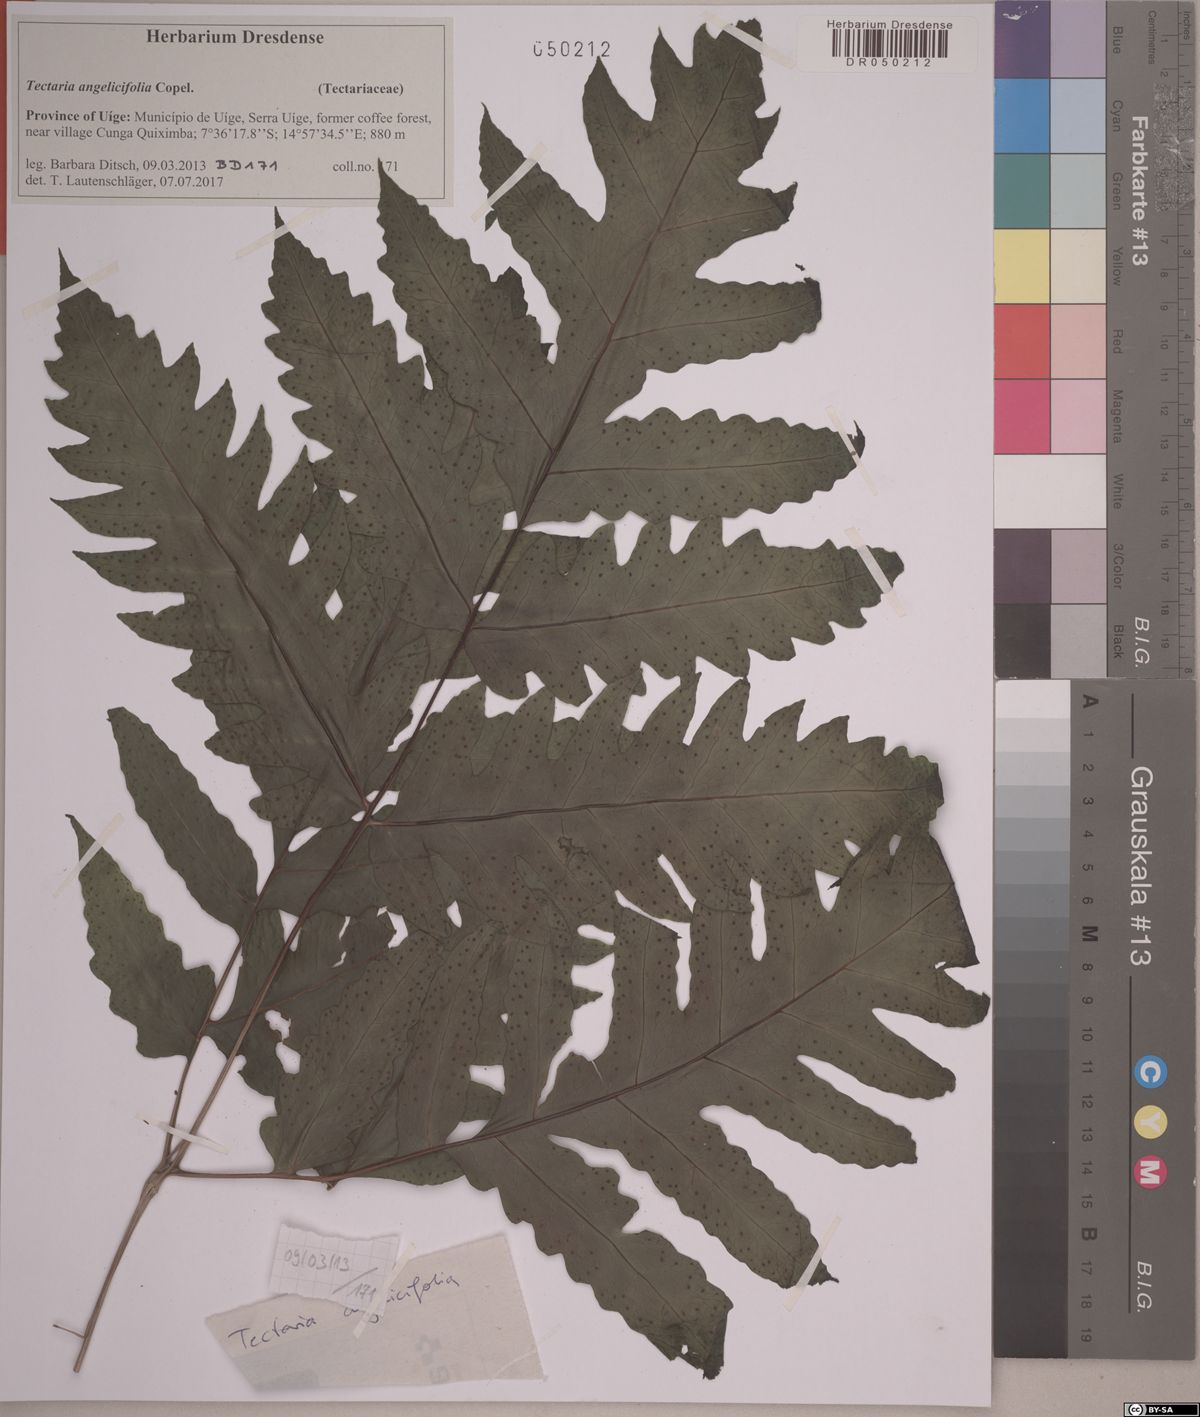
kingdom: Plantae
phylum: Tracheophyta
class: Polypodiopsida
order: Polypodiales
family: Tectariaceae
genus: Tectaria
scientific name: Tectaria angelicifolia
